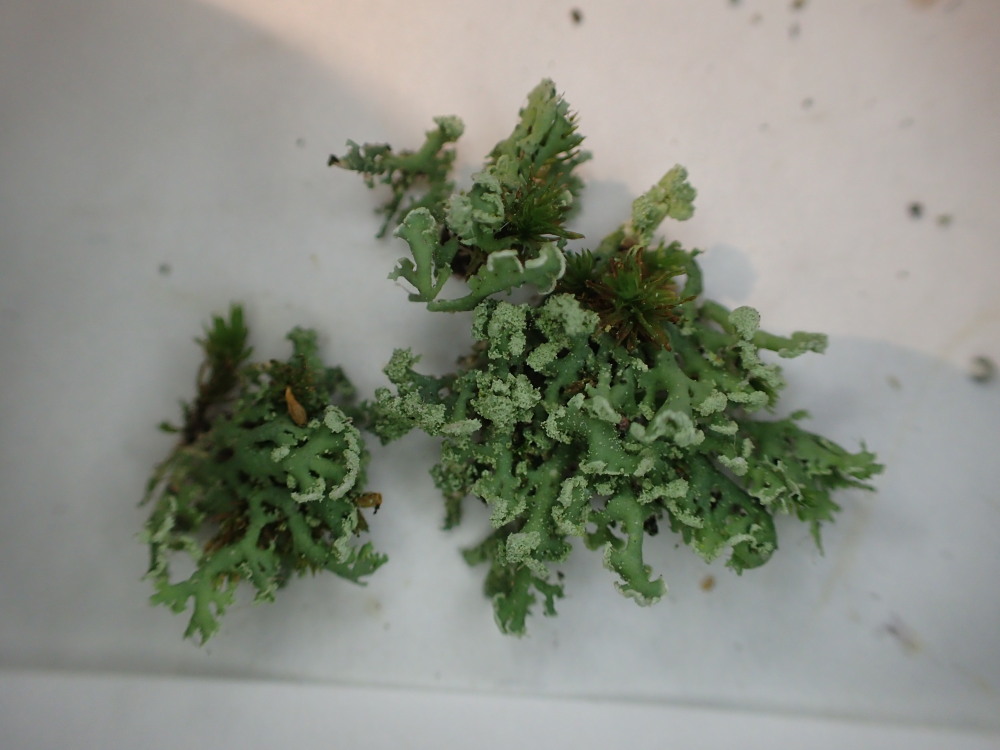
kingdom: Fungi
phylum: Ascomycota
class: Lecanoromycetes
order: Caliciales
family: Physciaceae
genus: Physcia
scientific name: Physcia tenella
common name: spæd rosetlav
